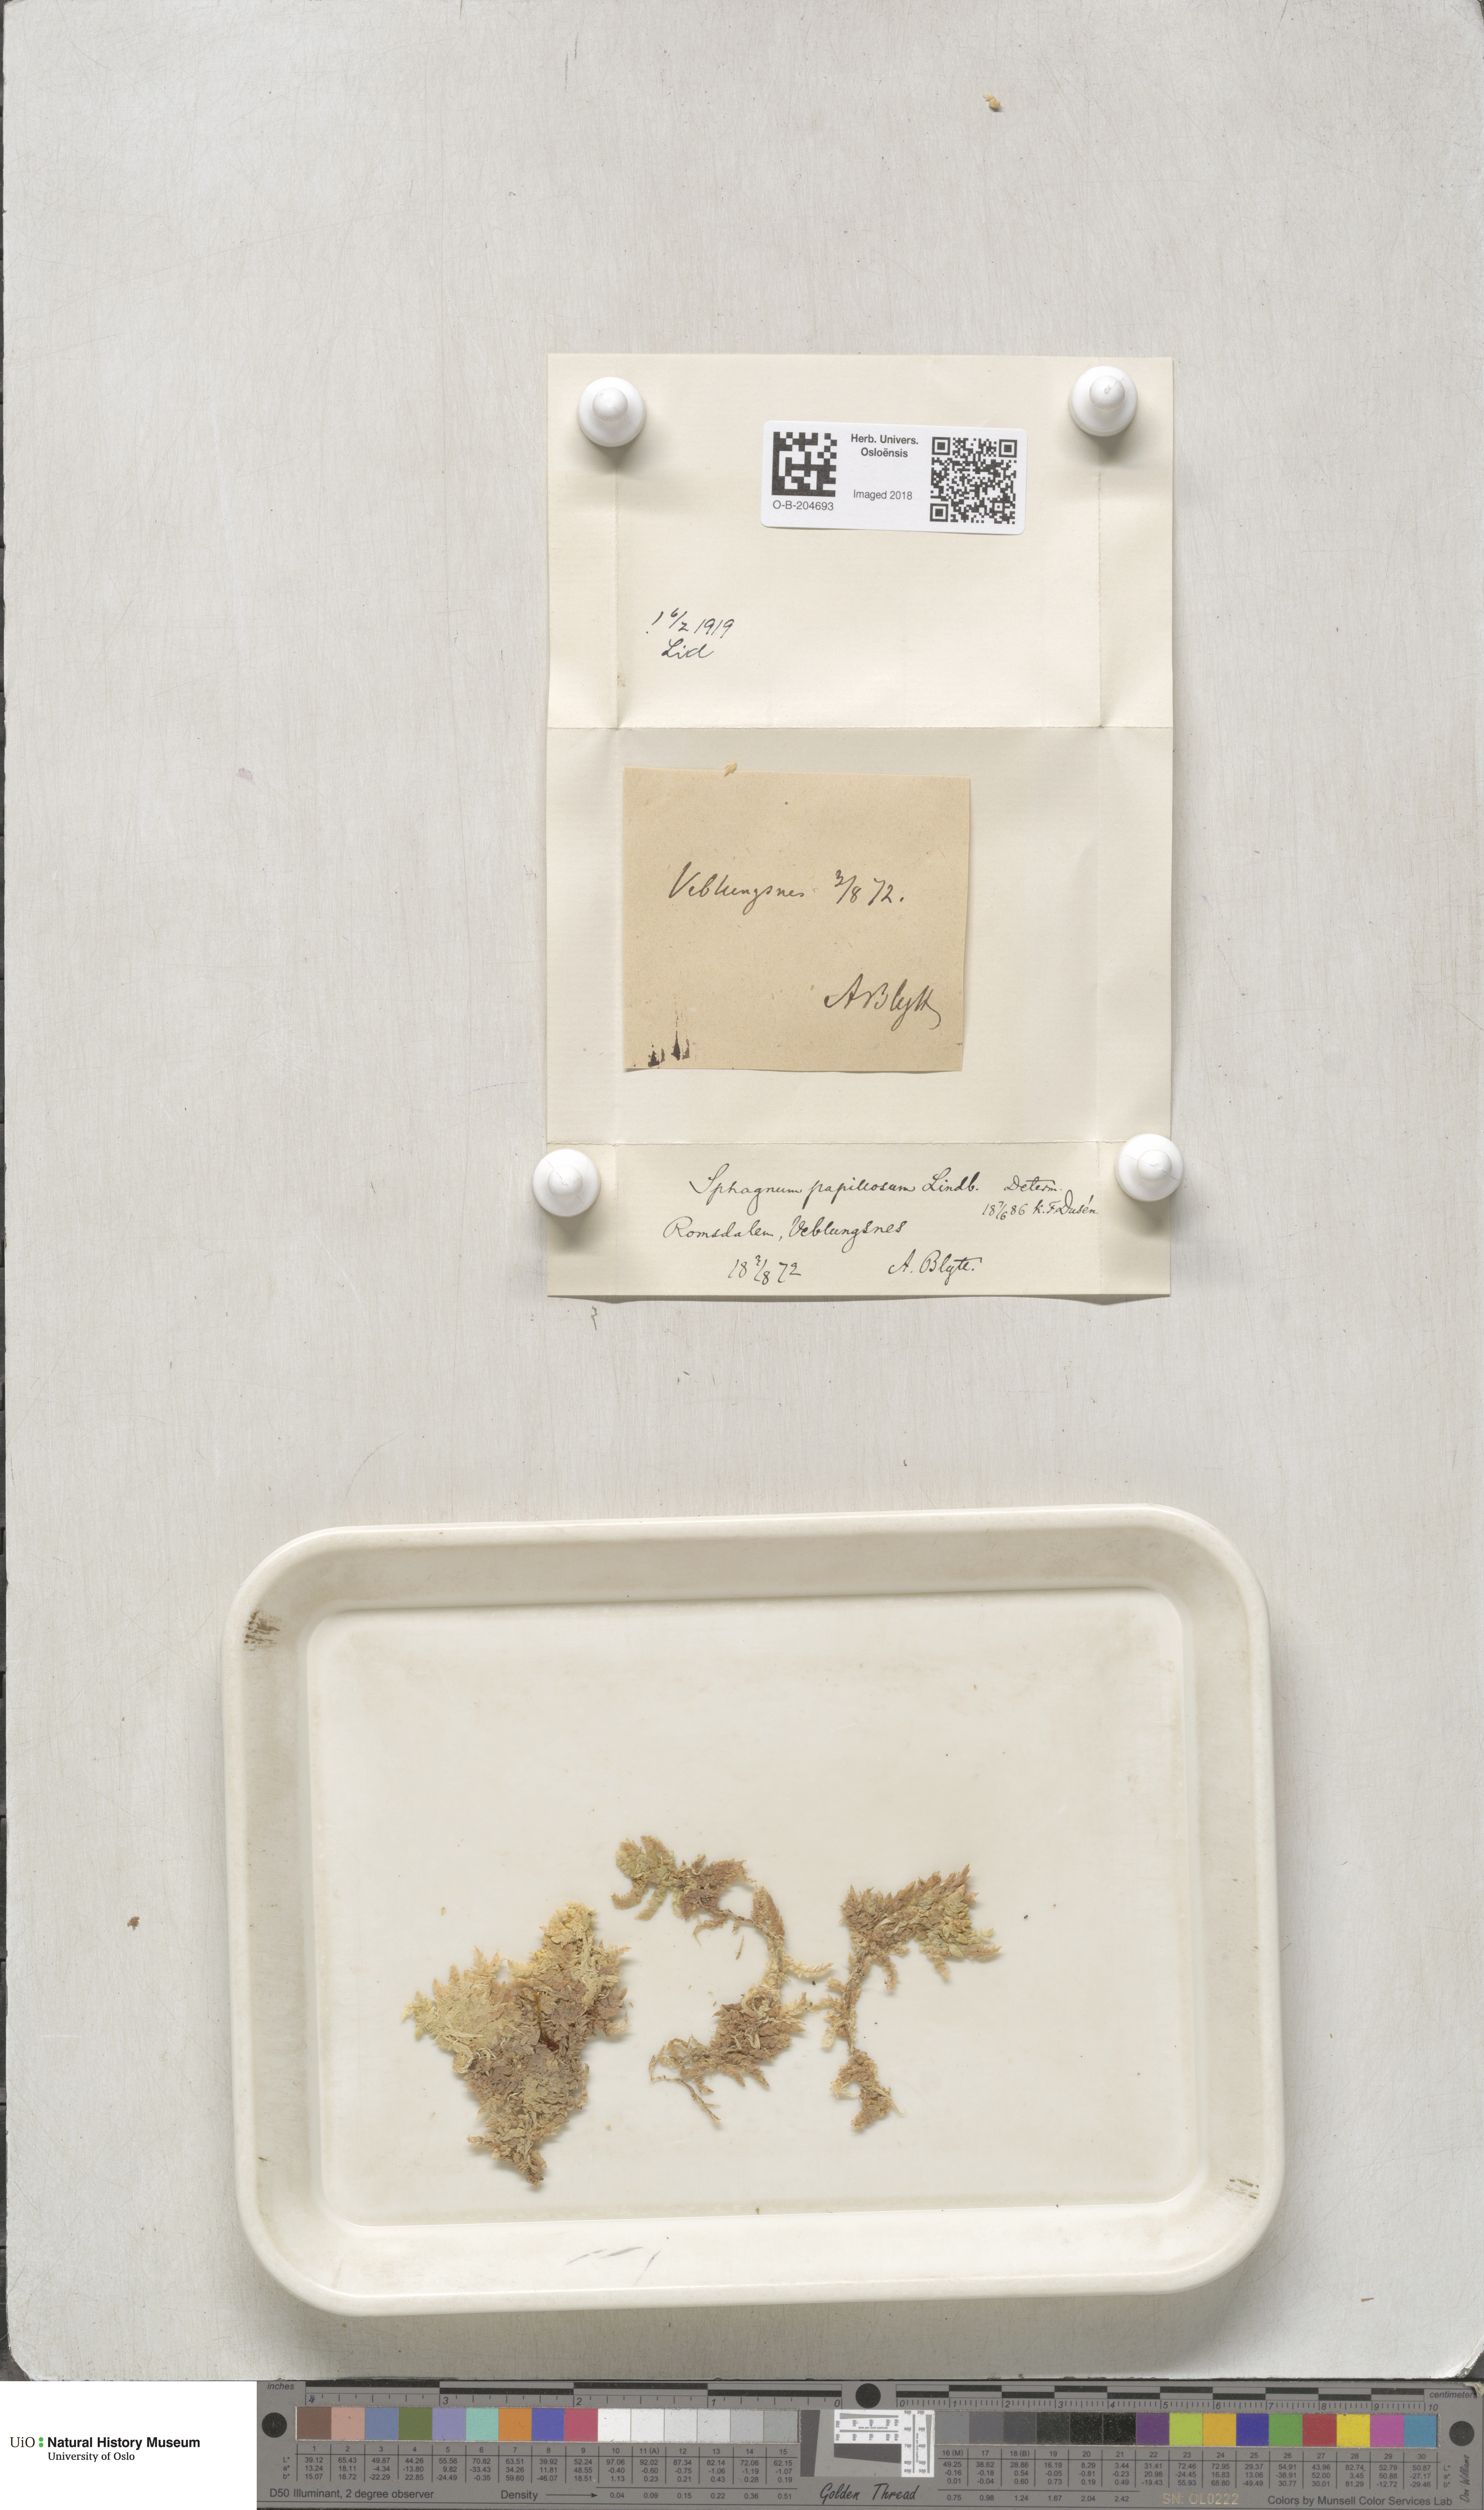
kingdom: Plantae
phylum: Bryophyta
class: Sphagnopsida
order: Sphagnales
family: Sphagnaceae
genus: Sphagnum
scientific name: Sphagnum papillosum
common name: Papillose peat moss
